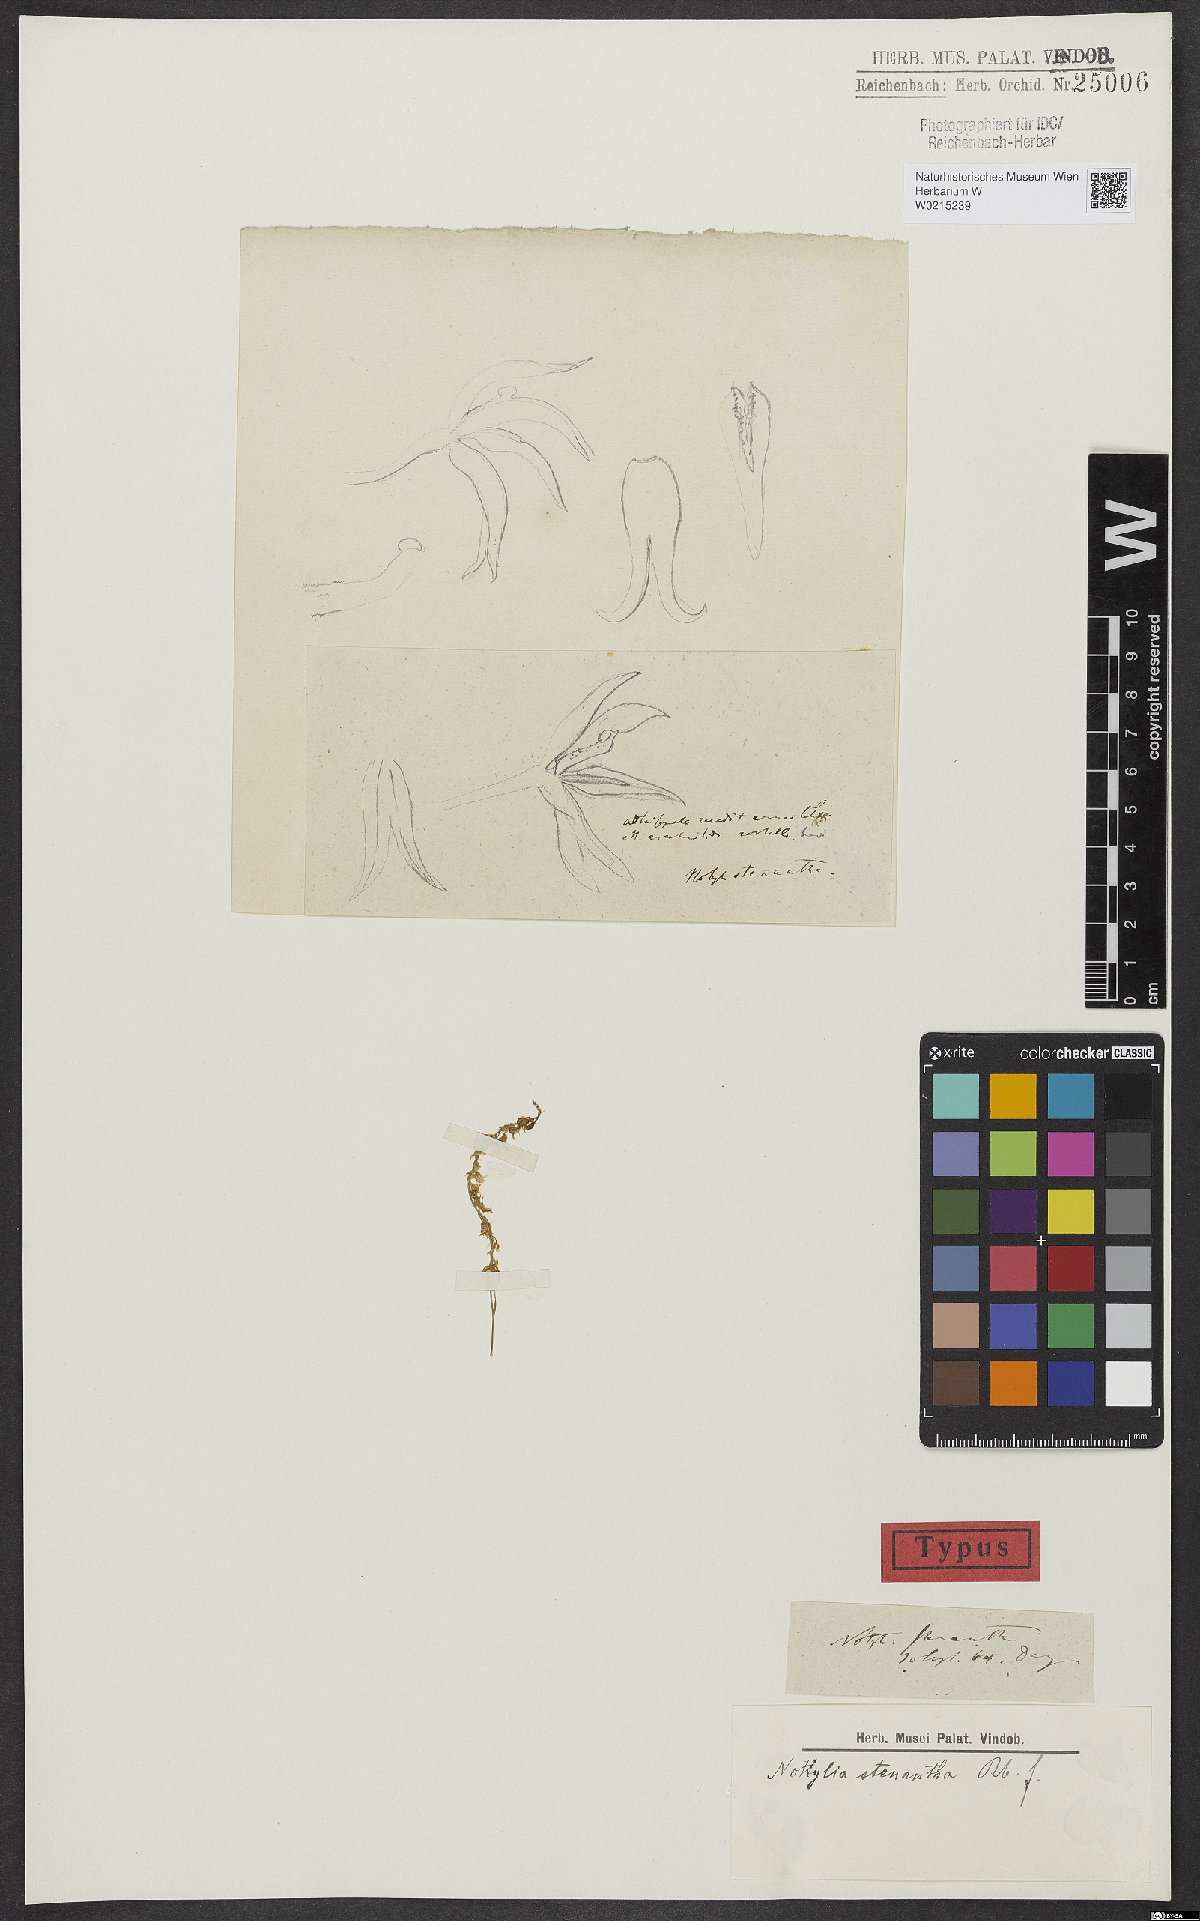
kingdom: Plantae
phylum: Tracheophyta
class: Liliopsida
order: Asparagales
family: Orchidaceae
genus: Notylia
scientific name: Notylia stenantha
